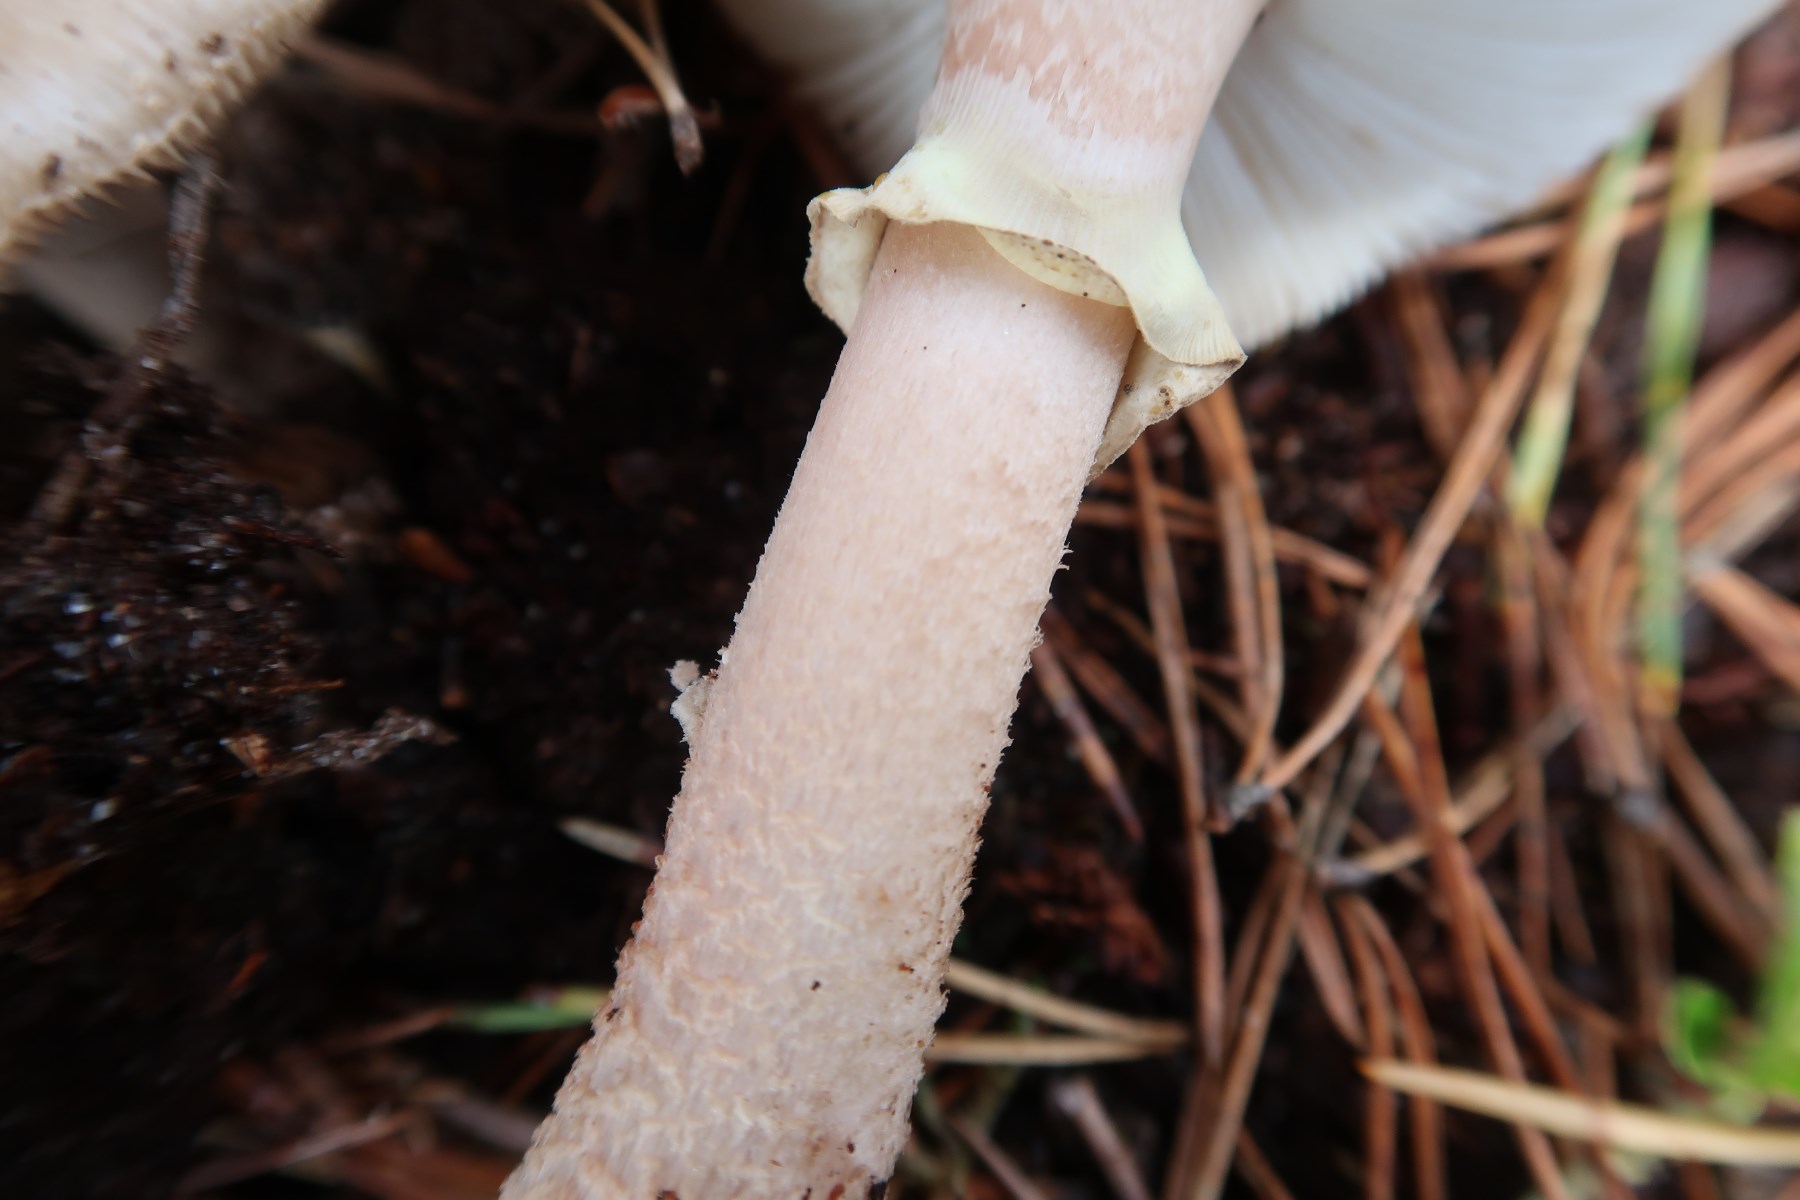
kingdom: Fungi
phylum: Basidiomycota
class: Agaricomycetes
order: Agaricales
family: Amanitaceae
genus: Amanita
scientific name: Amanita rubescens
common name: Blusher
